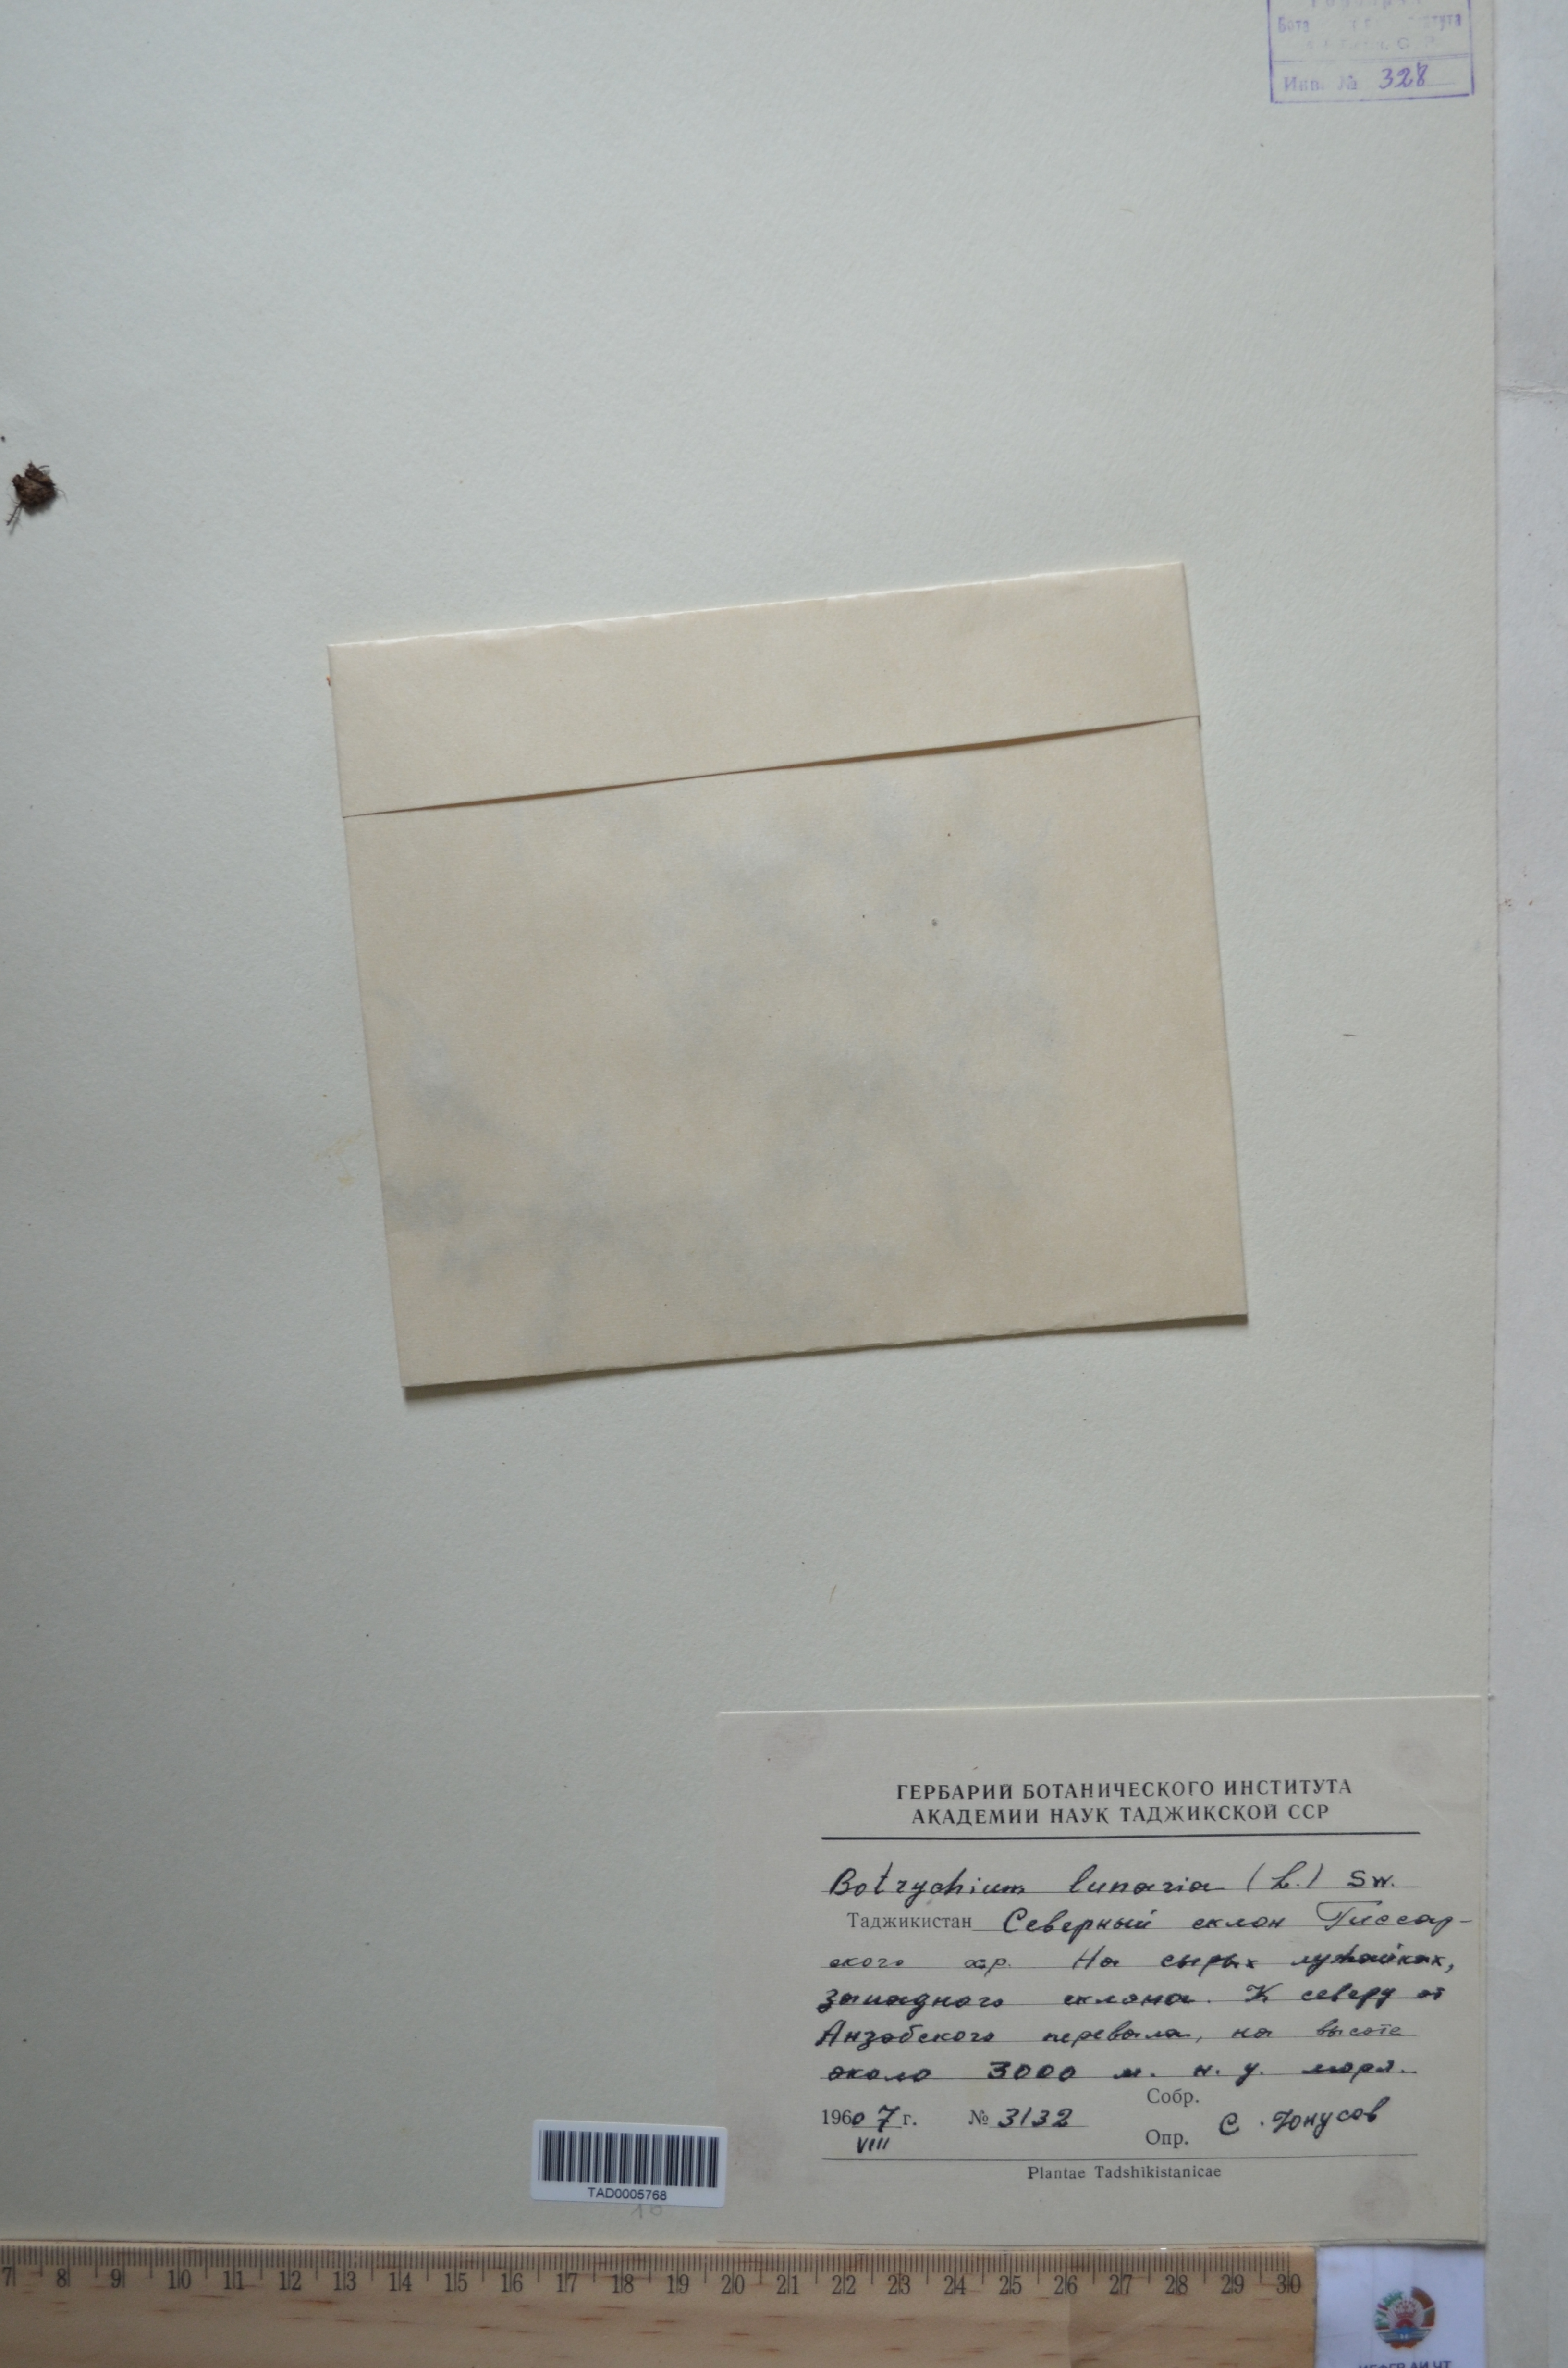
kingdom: Plantae
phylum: Tracheophyta
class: Polypodiopsida
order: Ophioglossales
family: Ophioglossaceae
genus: Botrychium
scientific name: Botrychium lunaria
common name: Moonwort
